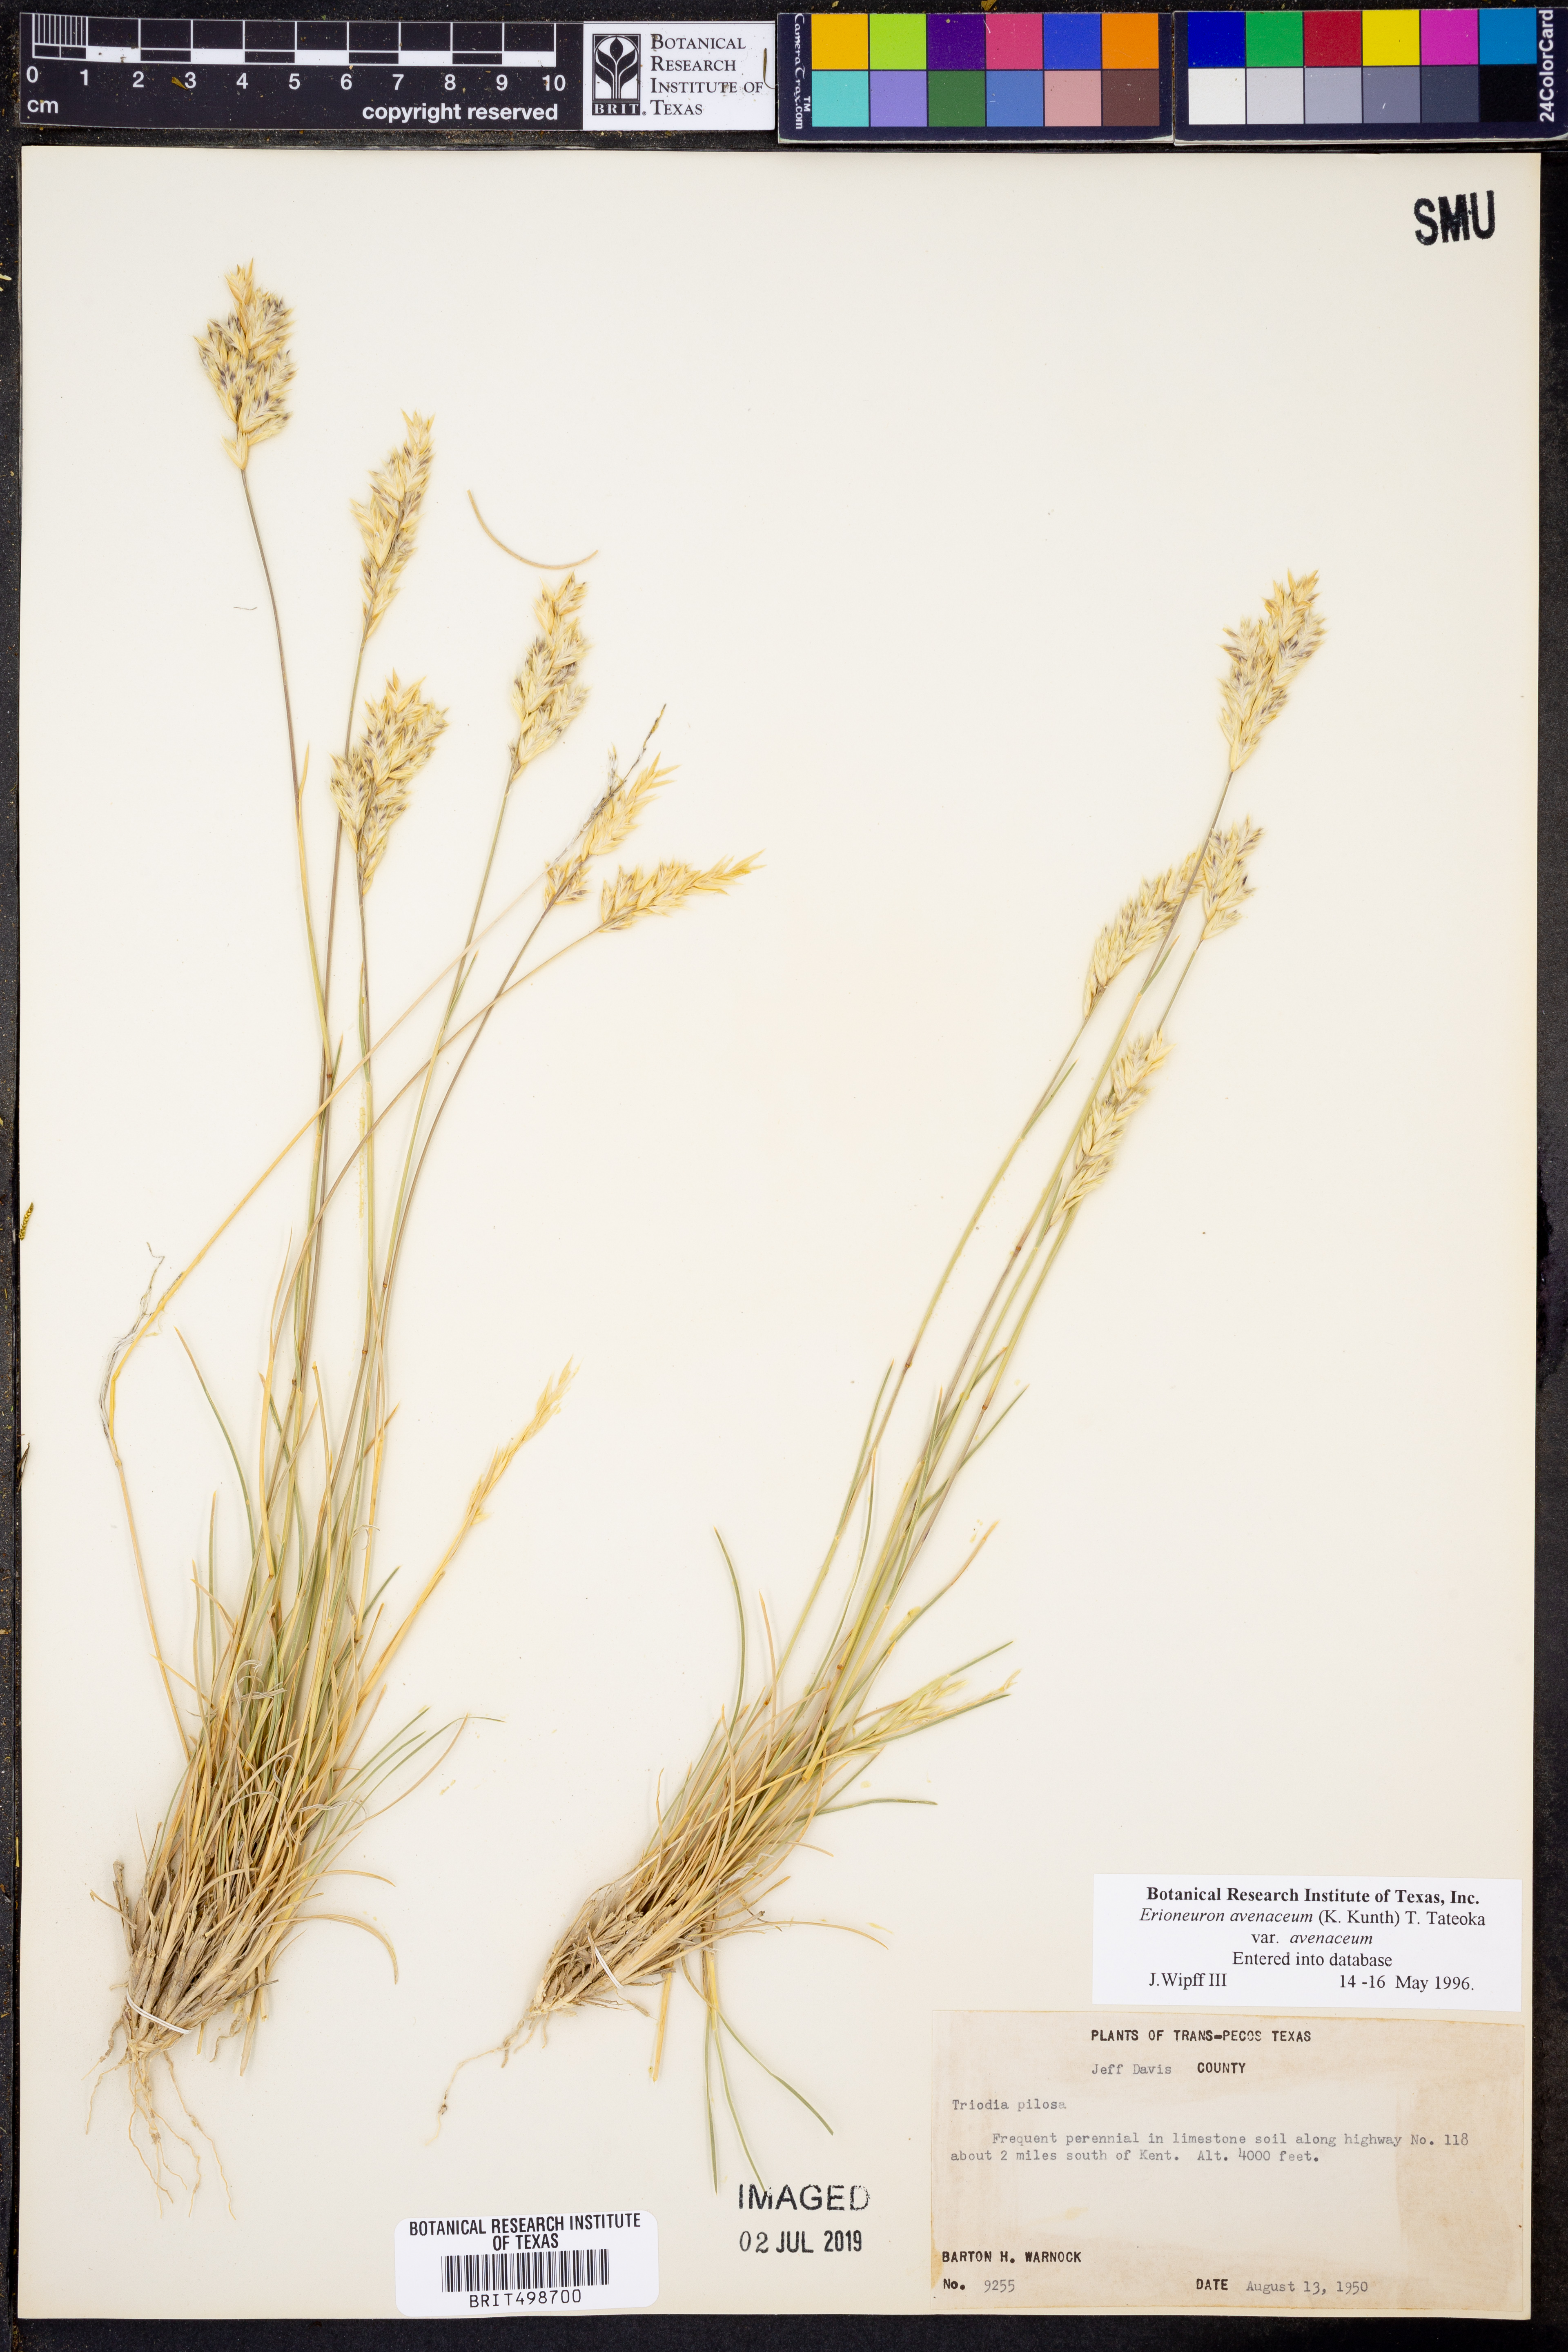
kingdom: Plantae
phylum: Tracheophyta
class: Liliopsida
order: Poales
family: Poaceae
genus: Erioneuron
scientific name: Erioneuron avenaceum
